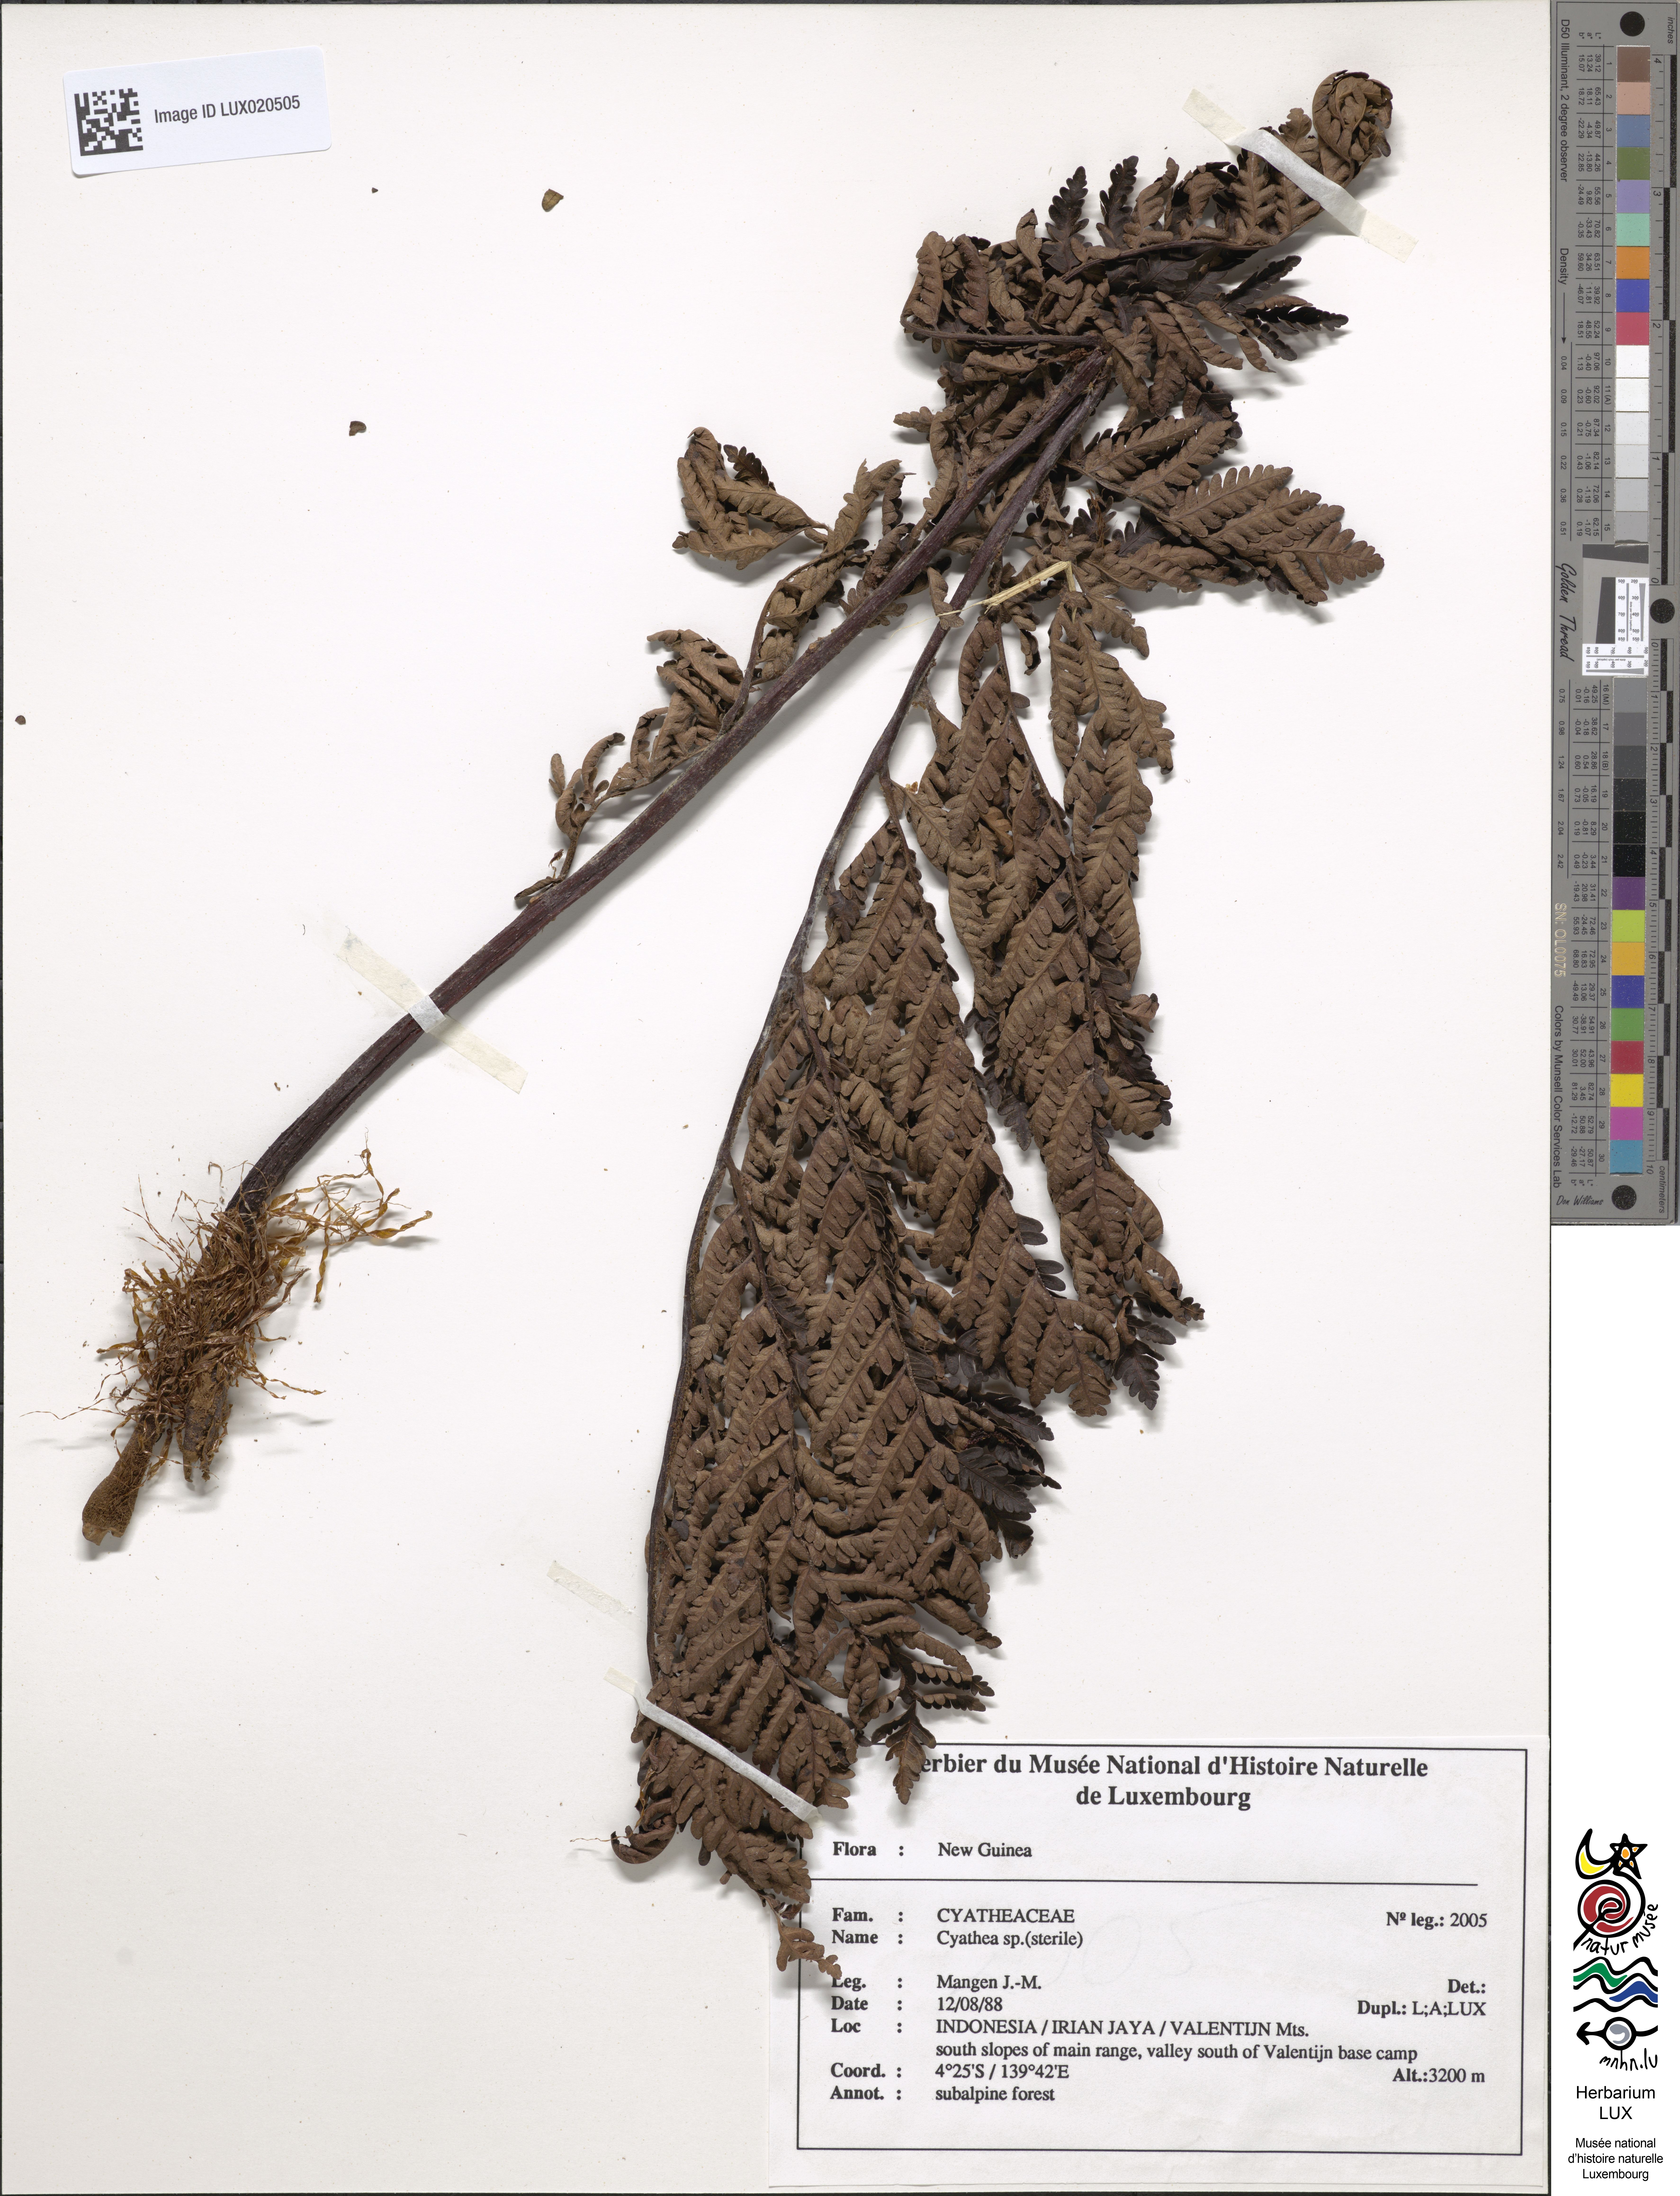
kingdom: Plantae
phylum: Tracheophyta
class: Polypodiopsida
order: Cyatheales
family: Cyatheaceae
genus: Cyathea
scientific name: Cyathea
